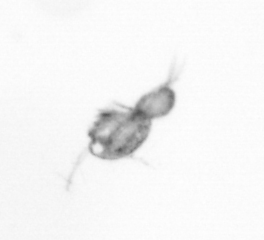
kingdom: Animalia
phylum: Arthropoda
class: Copepoda
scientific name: Copepoda
